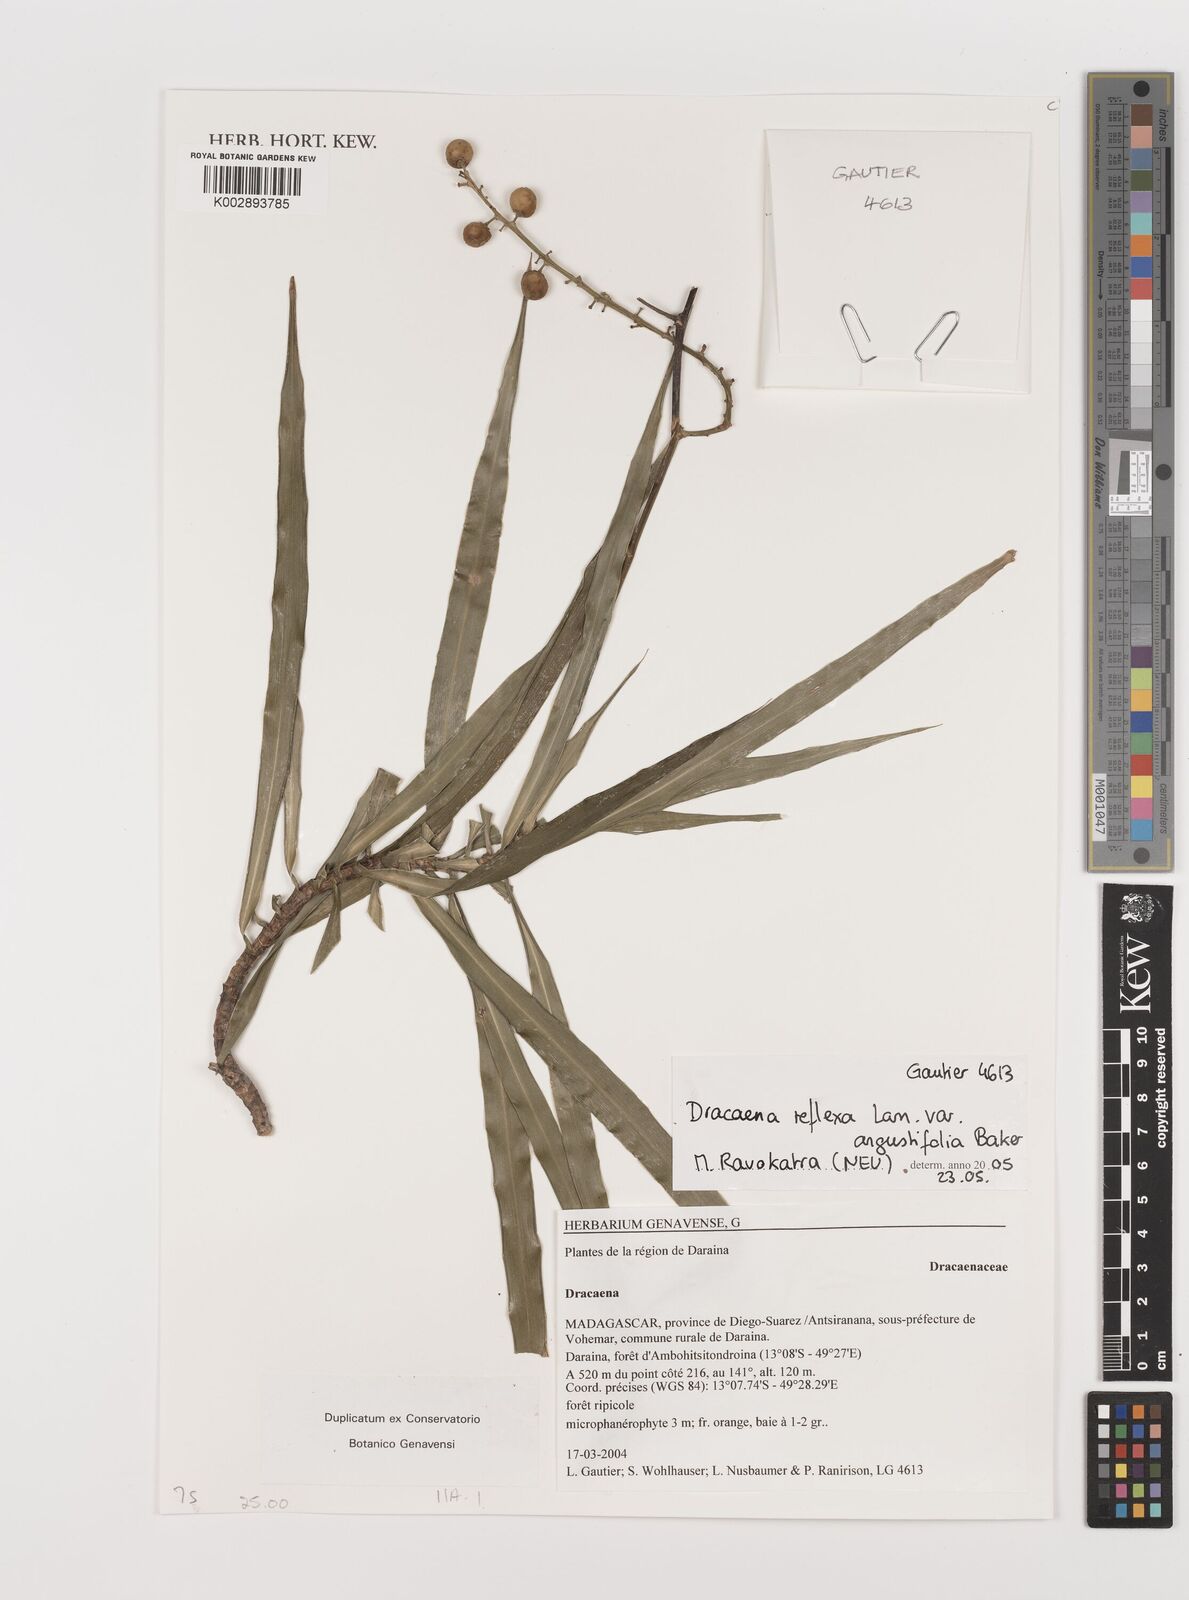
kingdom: Plantae
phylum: Tracheophyta
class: Liliopsida
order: Asparagales
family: Asparagaceae
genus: Dracaena
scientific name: Dracaena reflexa
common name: Song-of-india
